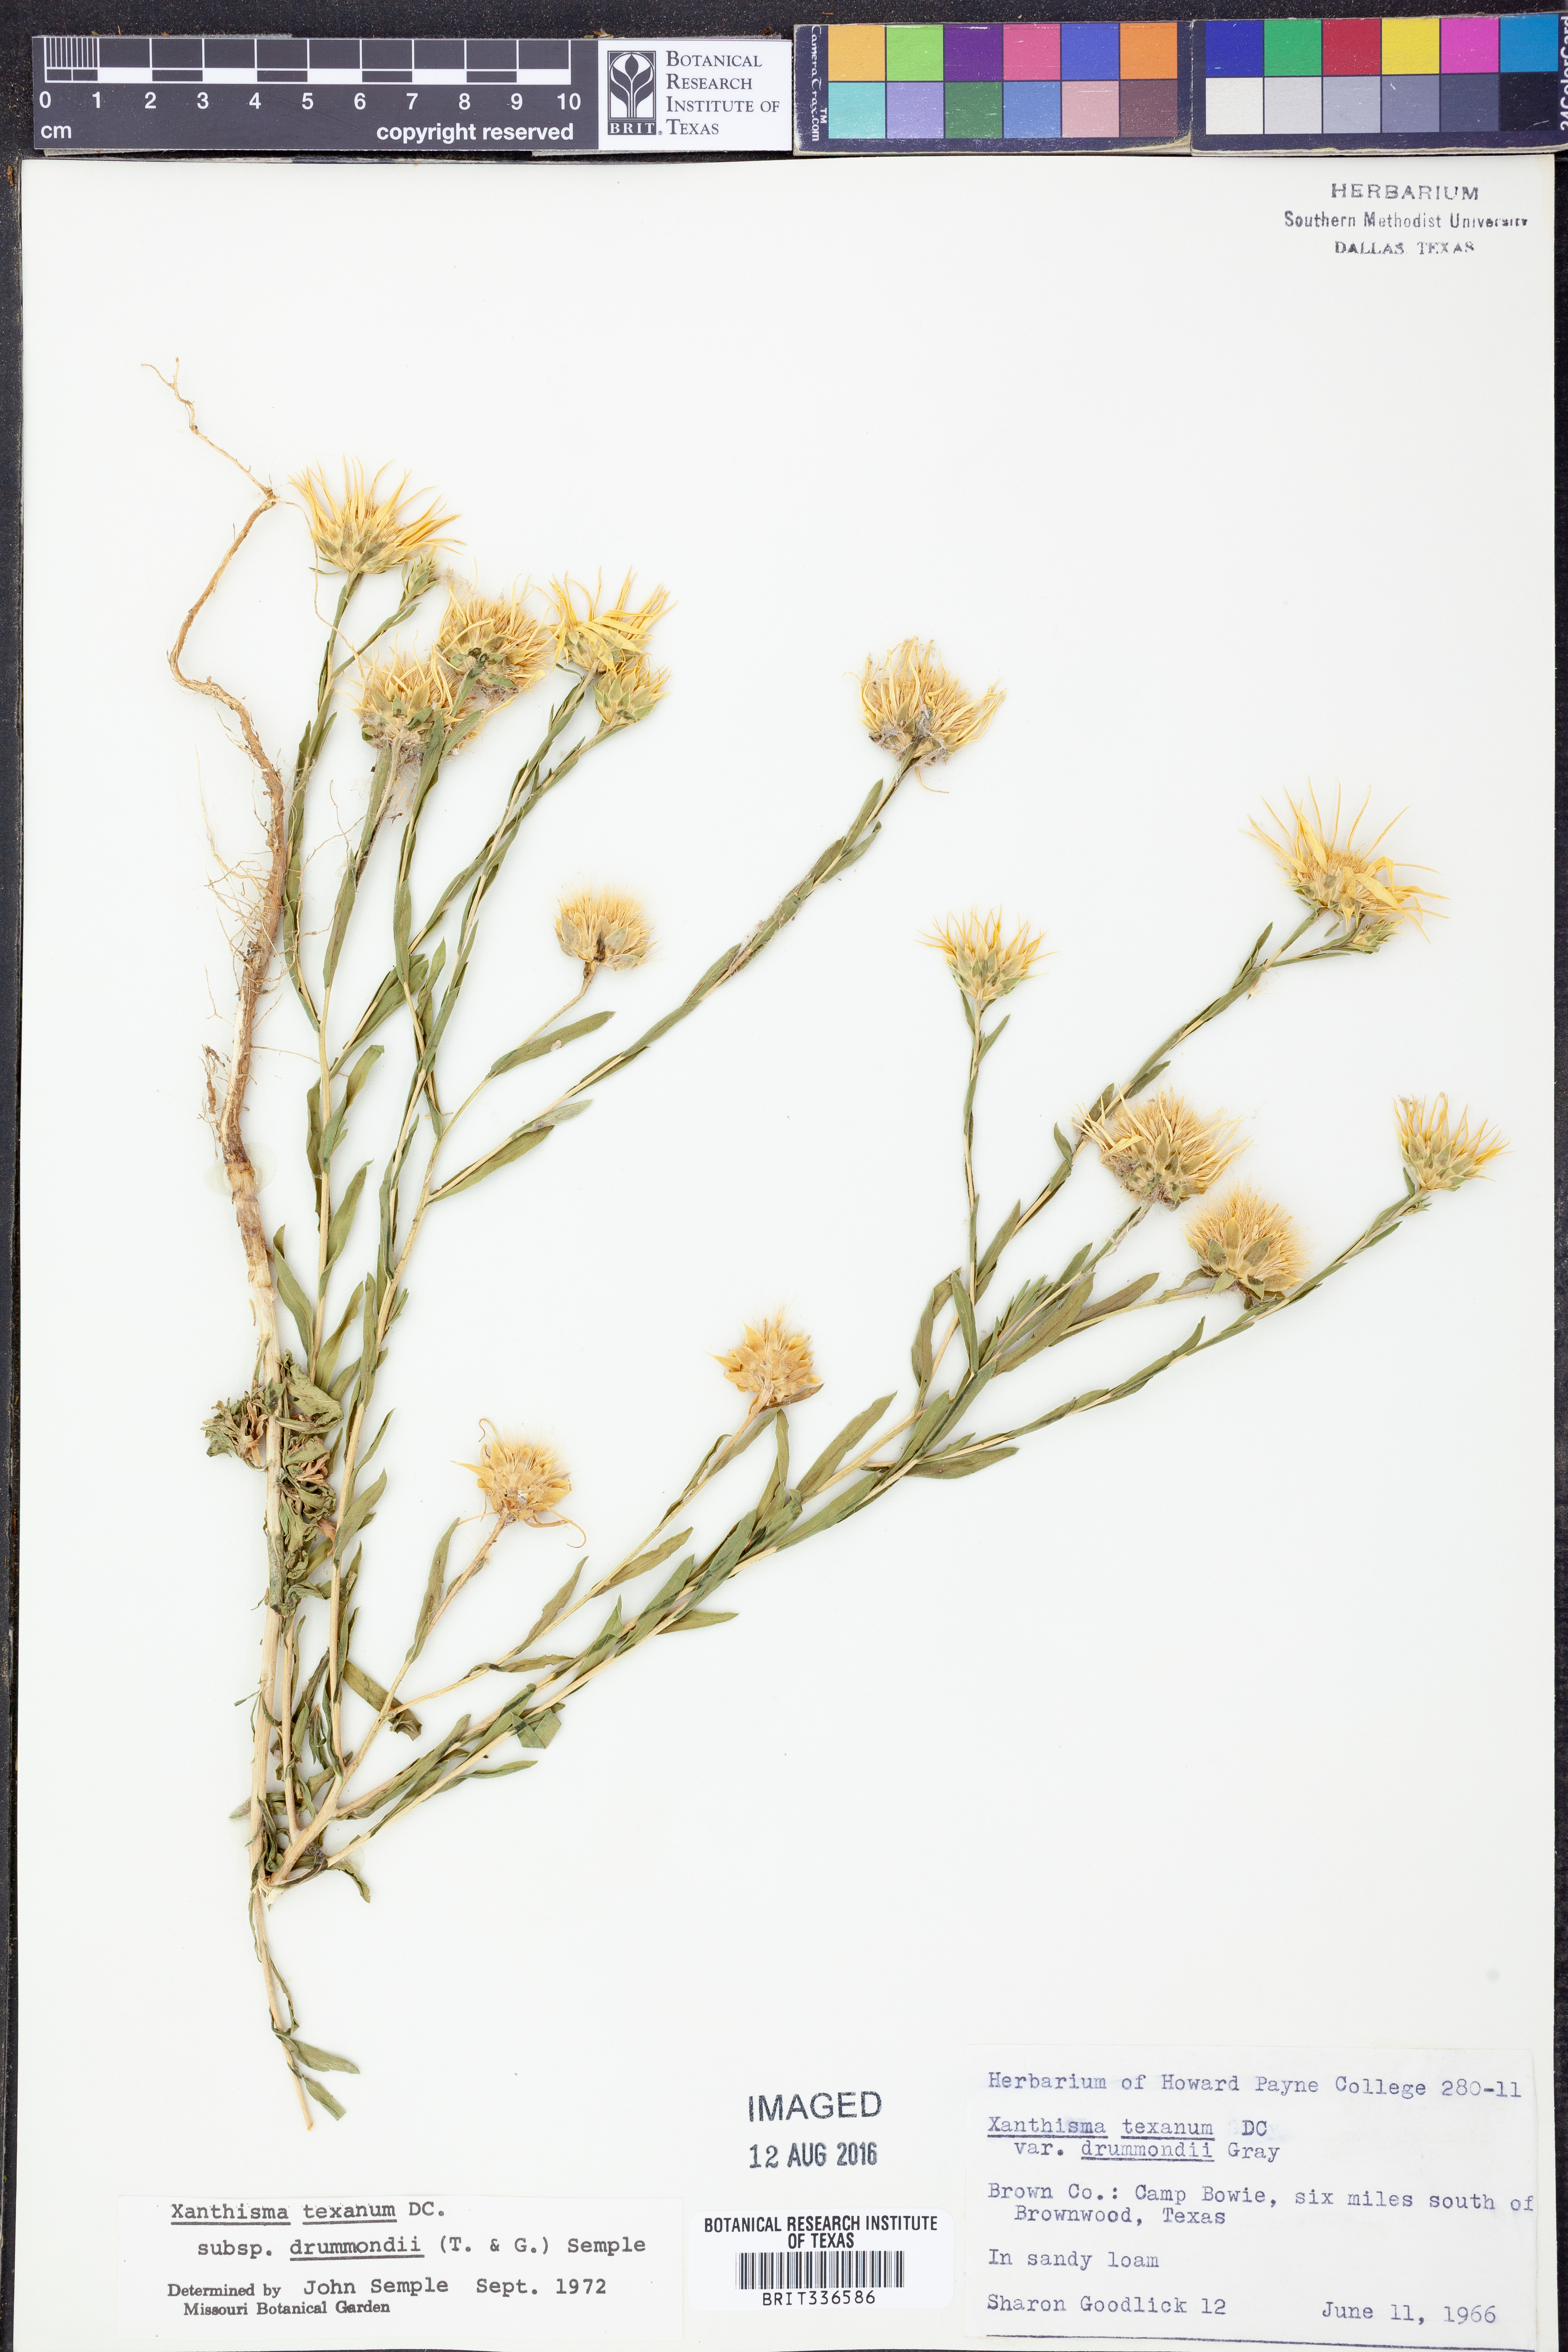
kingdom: Plantae
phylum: Tracheophyta
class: Magnoliopsida
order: Asterales
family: Asteraceae
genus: Xanthisma
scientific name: Xanthisma texanum
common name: Texas sleepy daisy
